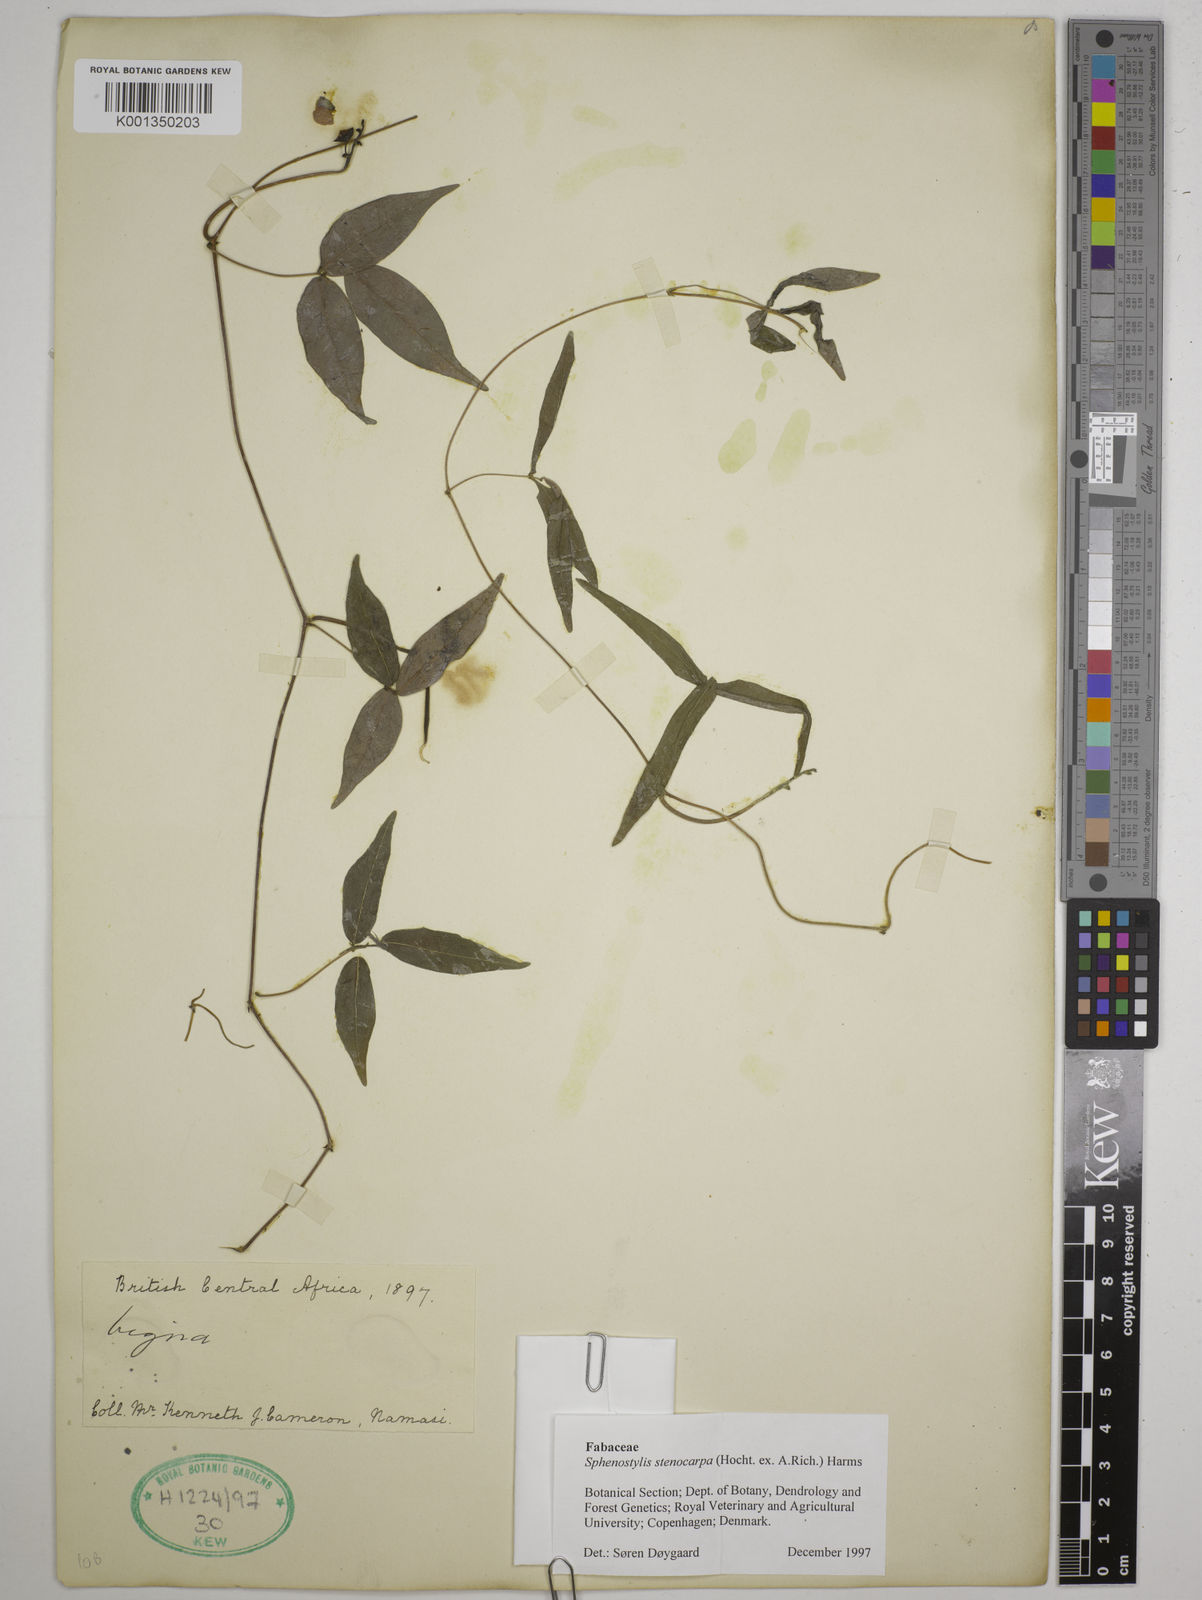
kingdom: Plantae
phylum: Tracheophyta
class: Magnoliopsida
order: Fabales
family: Fabaceae
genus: Sphenostylis
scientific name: Sphenostylis stenocarpa
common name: Yam-pea
